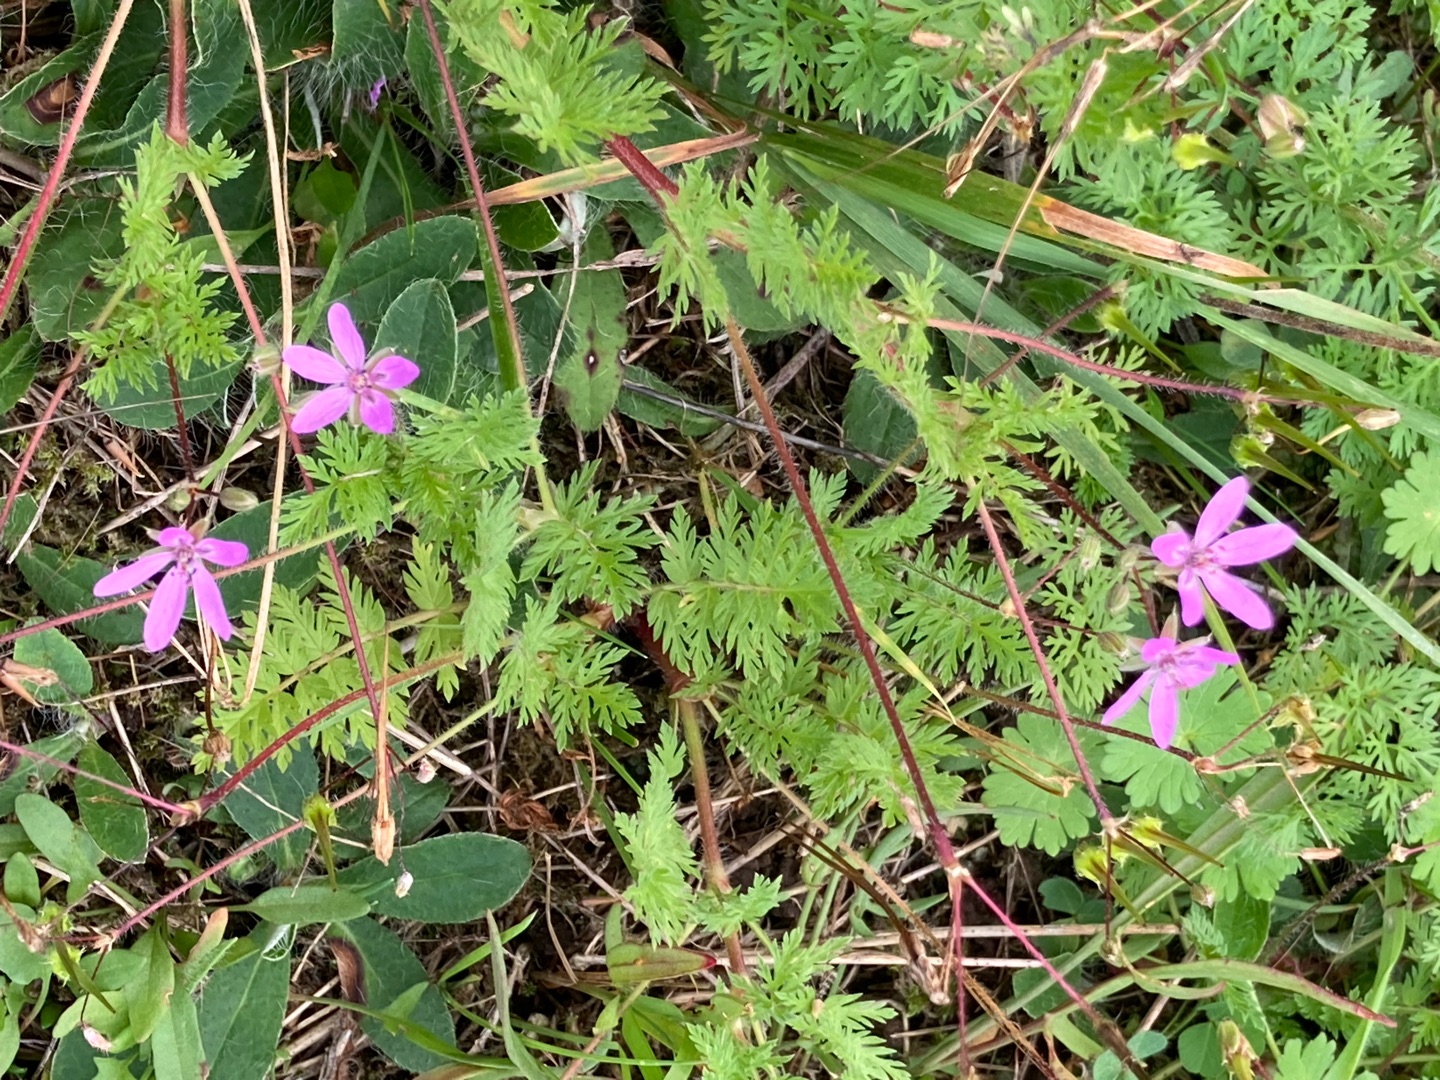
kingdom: Plantae
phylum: Tracheophyta
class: Magnoliopsida
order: Geraniales
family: Geraniaceae
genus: Erodium
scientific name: Erodium cicutarium
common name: Hejrenæb
